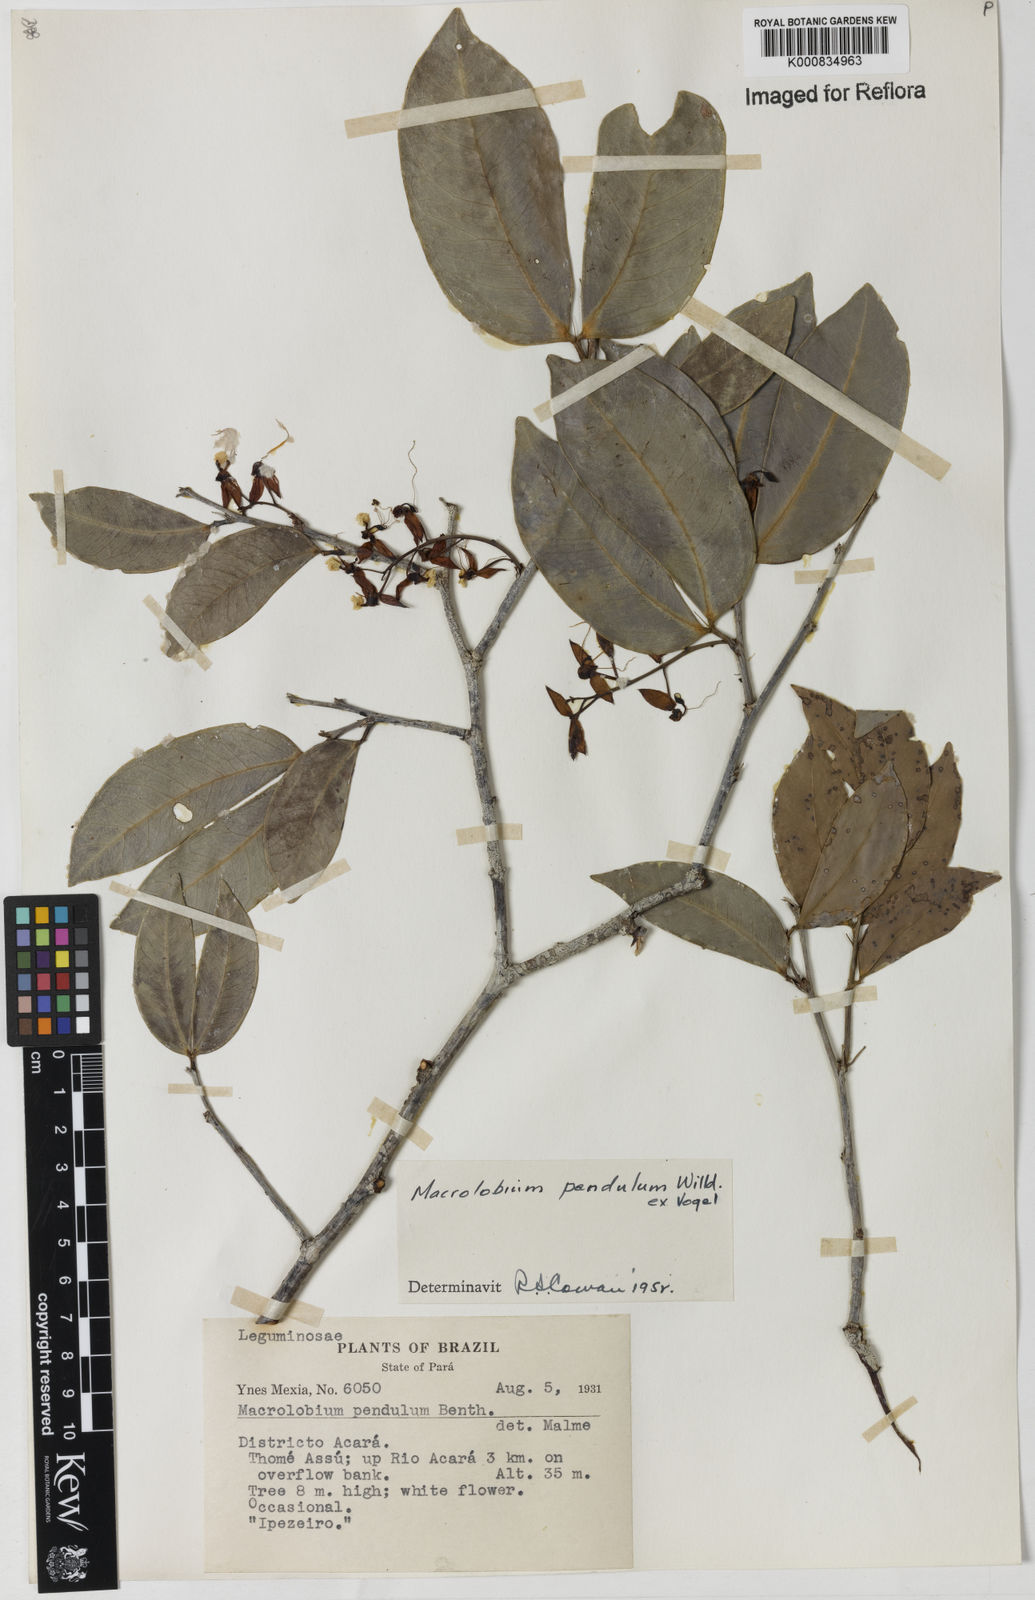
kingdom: Plantae
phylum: Tracheophyta
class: Magnoliopsida
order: Fabales
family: Fabaceae
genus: Macrolobium
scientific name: Macrolobium pendulum
